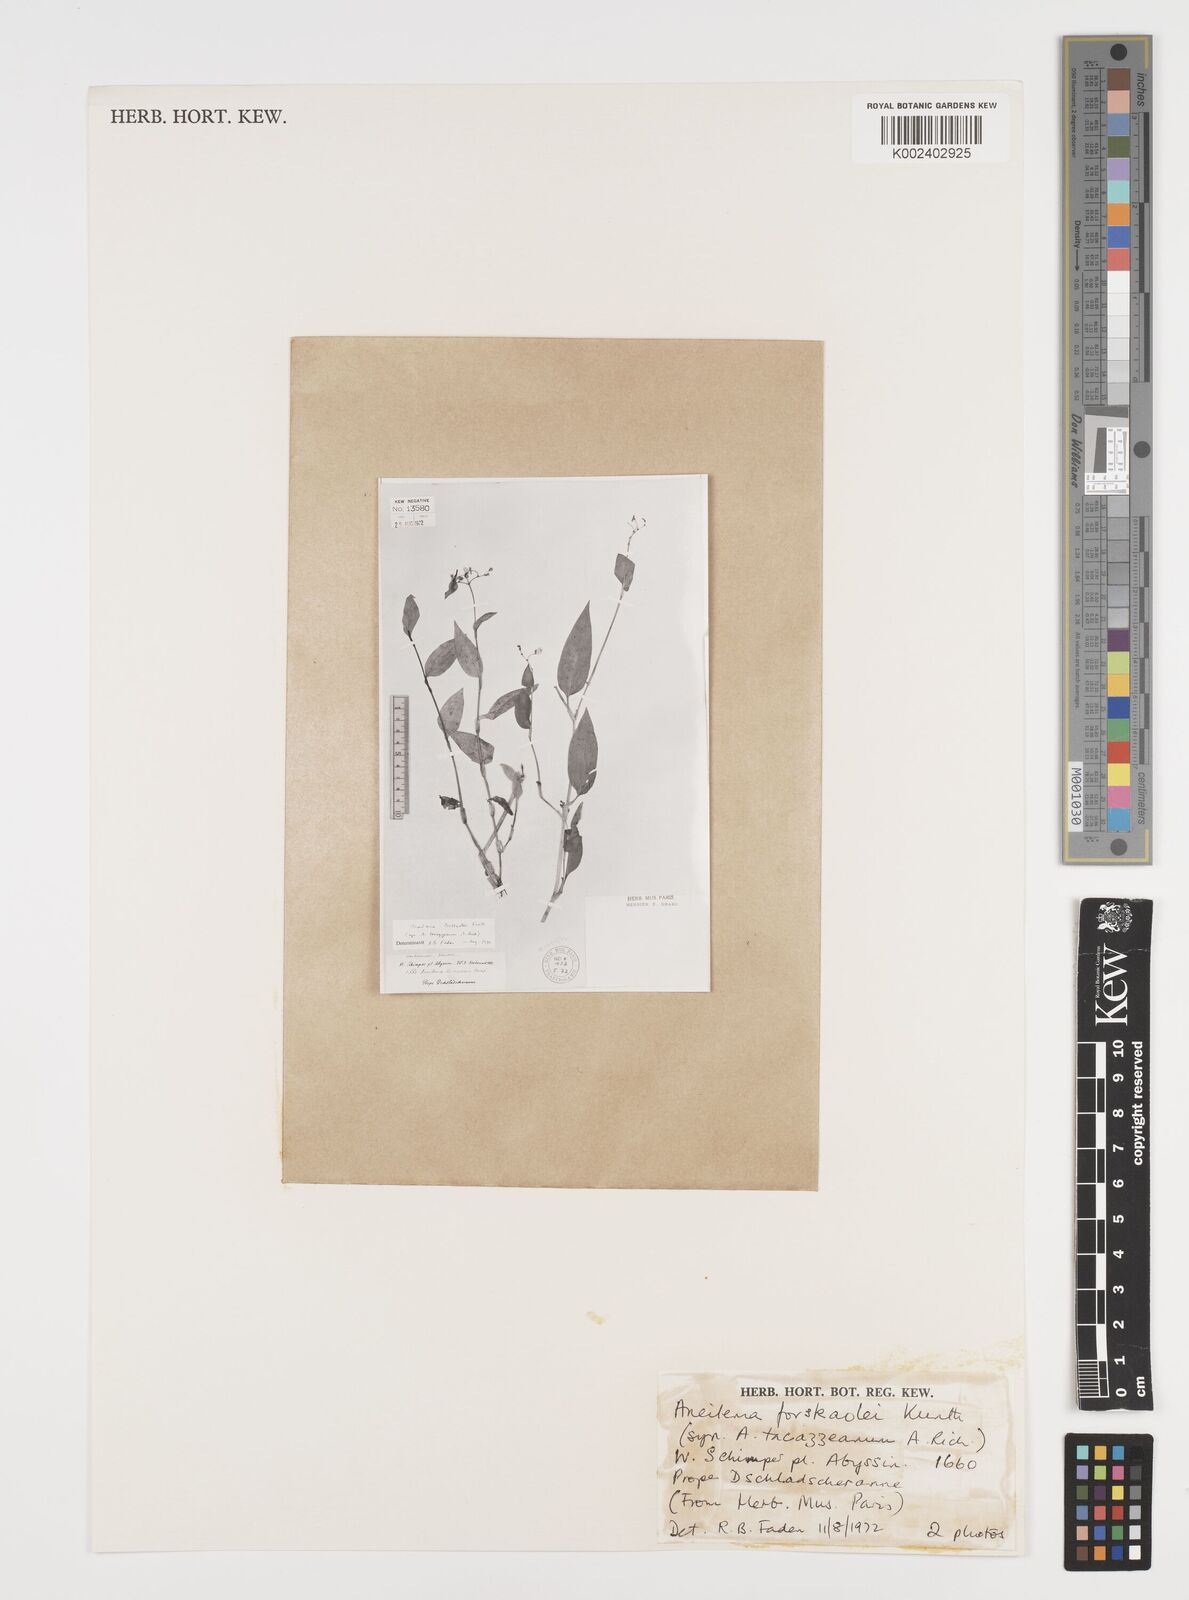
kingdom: Plantae
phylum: Tracheophyta
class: Liliopsida
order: Commelinales
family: Commelinaceae
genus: Aneilema
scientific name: Aneilema forskalii
